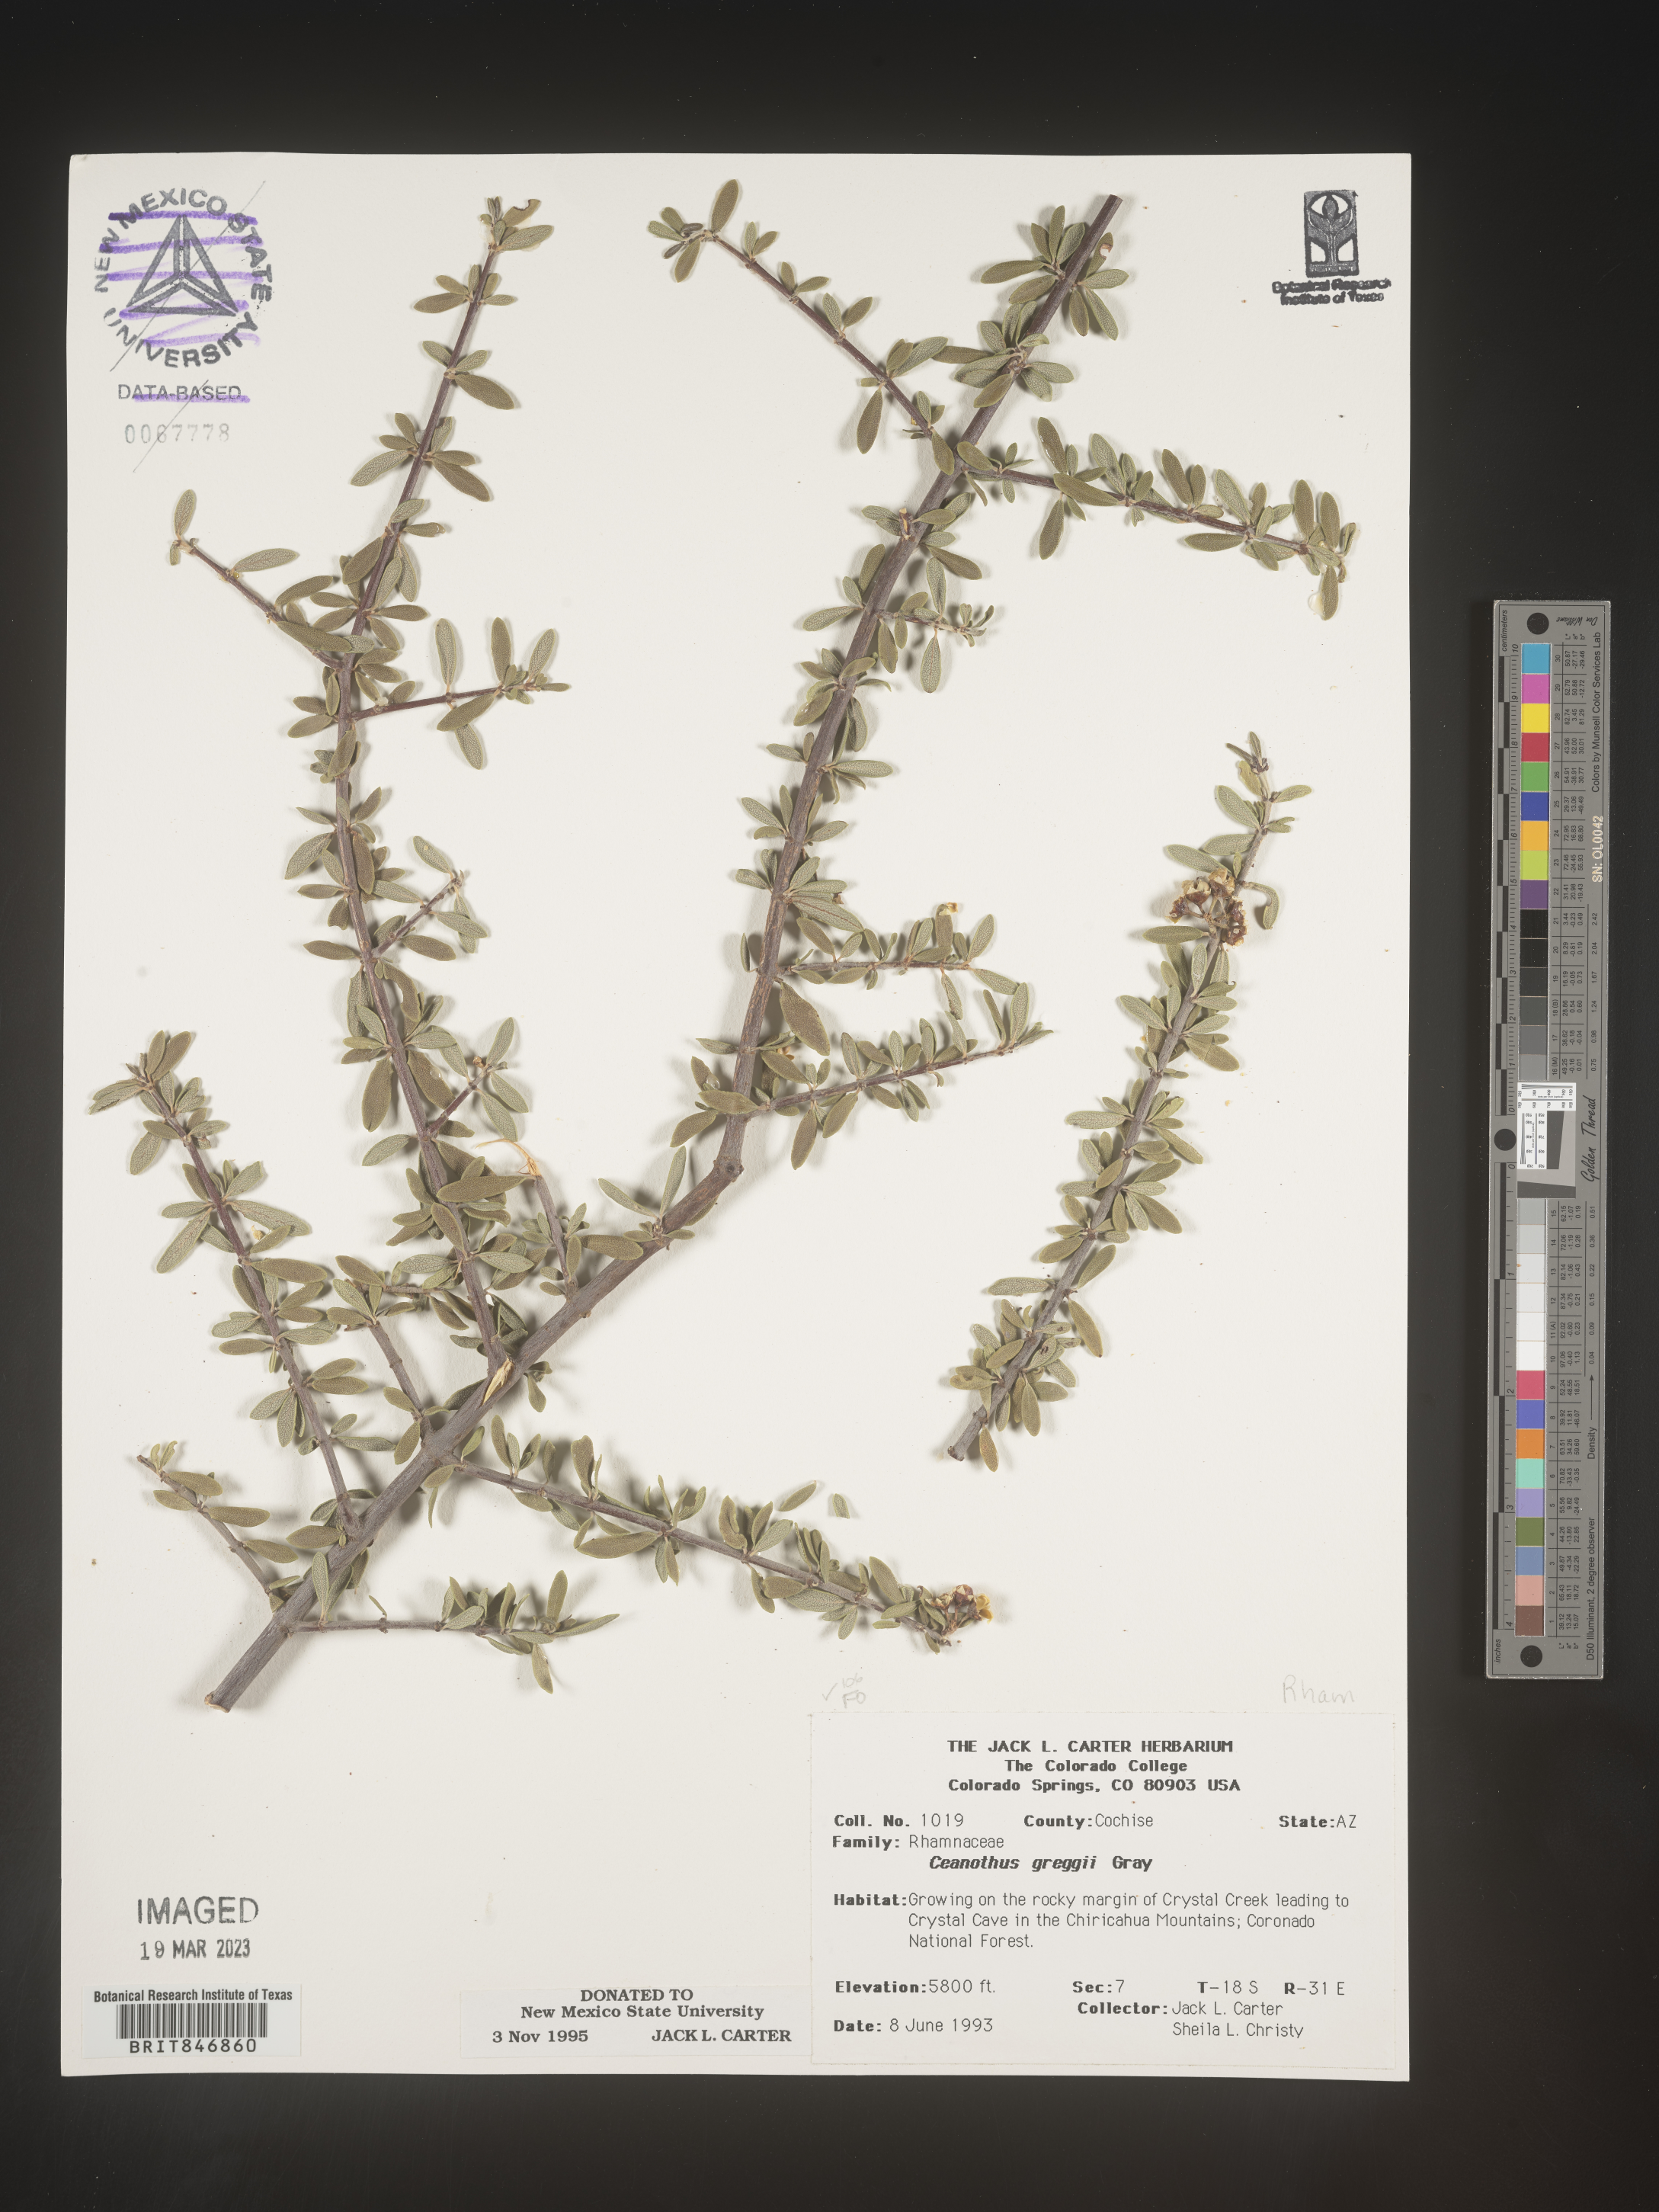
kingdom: Plantae
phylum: Tracheophyta
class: Magnoliopsida
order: Rosales
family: Rhamnaceae
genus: Ceanothus
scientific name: Ceanothus
